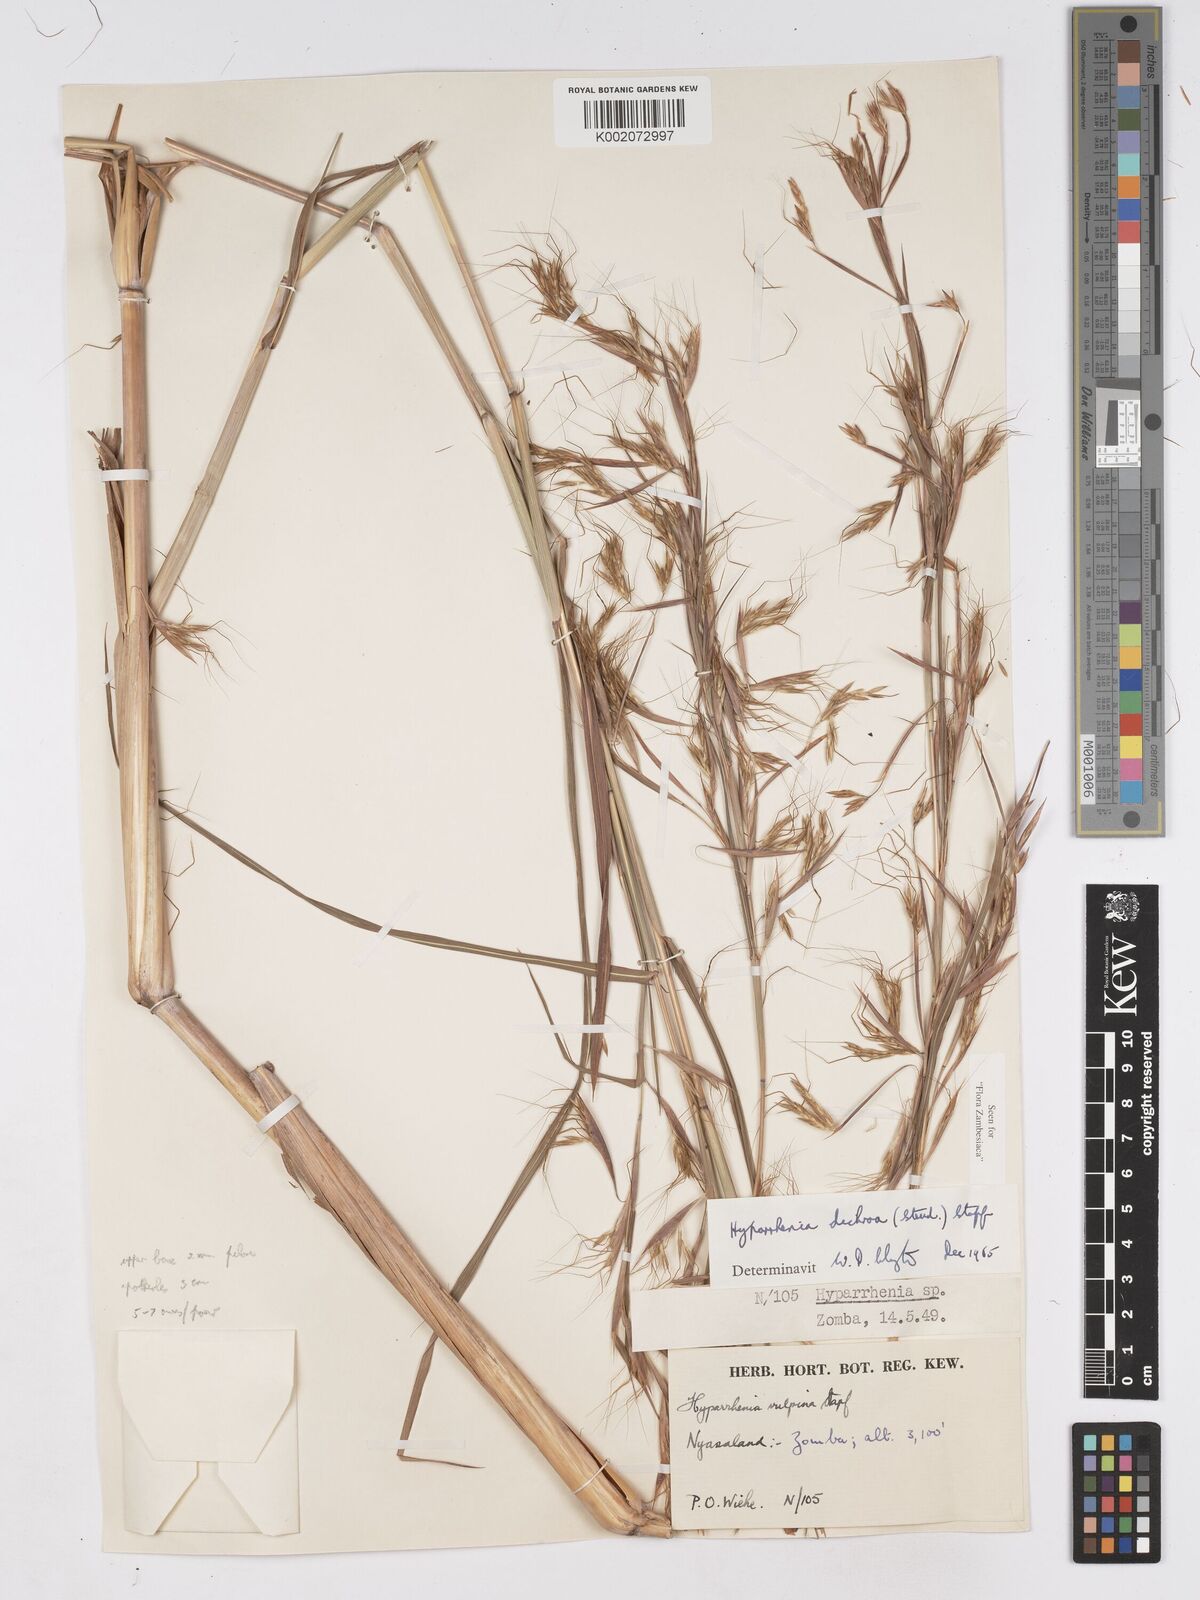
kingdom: Plantae
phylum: Tracheophyta
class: Liliopsida
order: Poales
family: Poaceae
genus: Hyparrhenia
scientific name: Hyparrhenia dichroa
